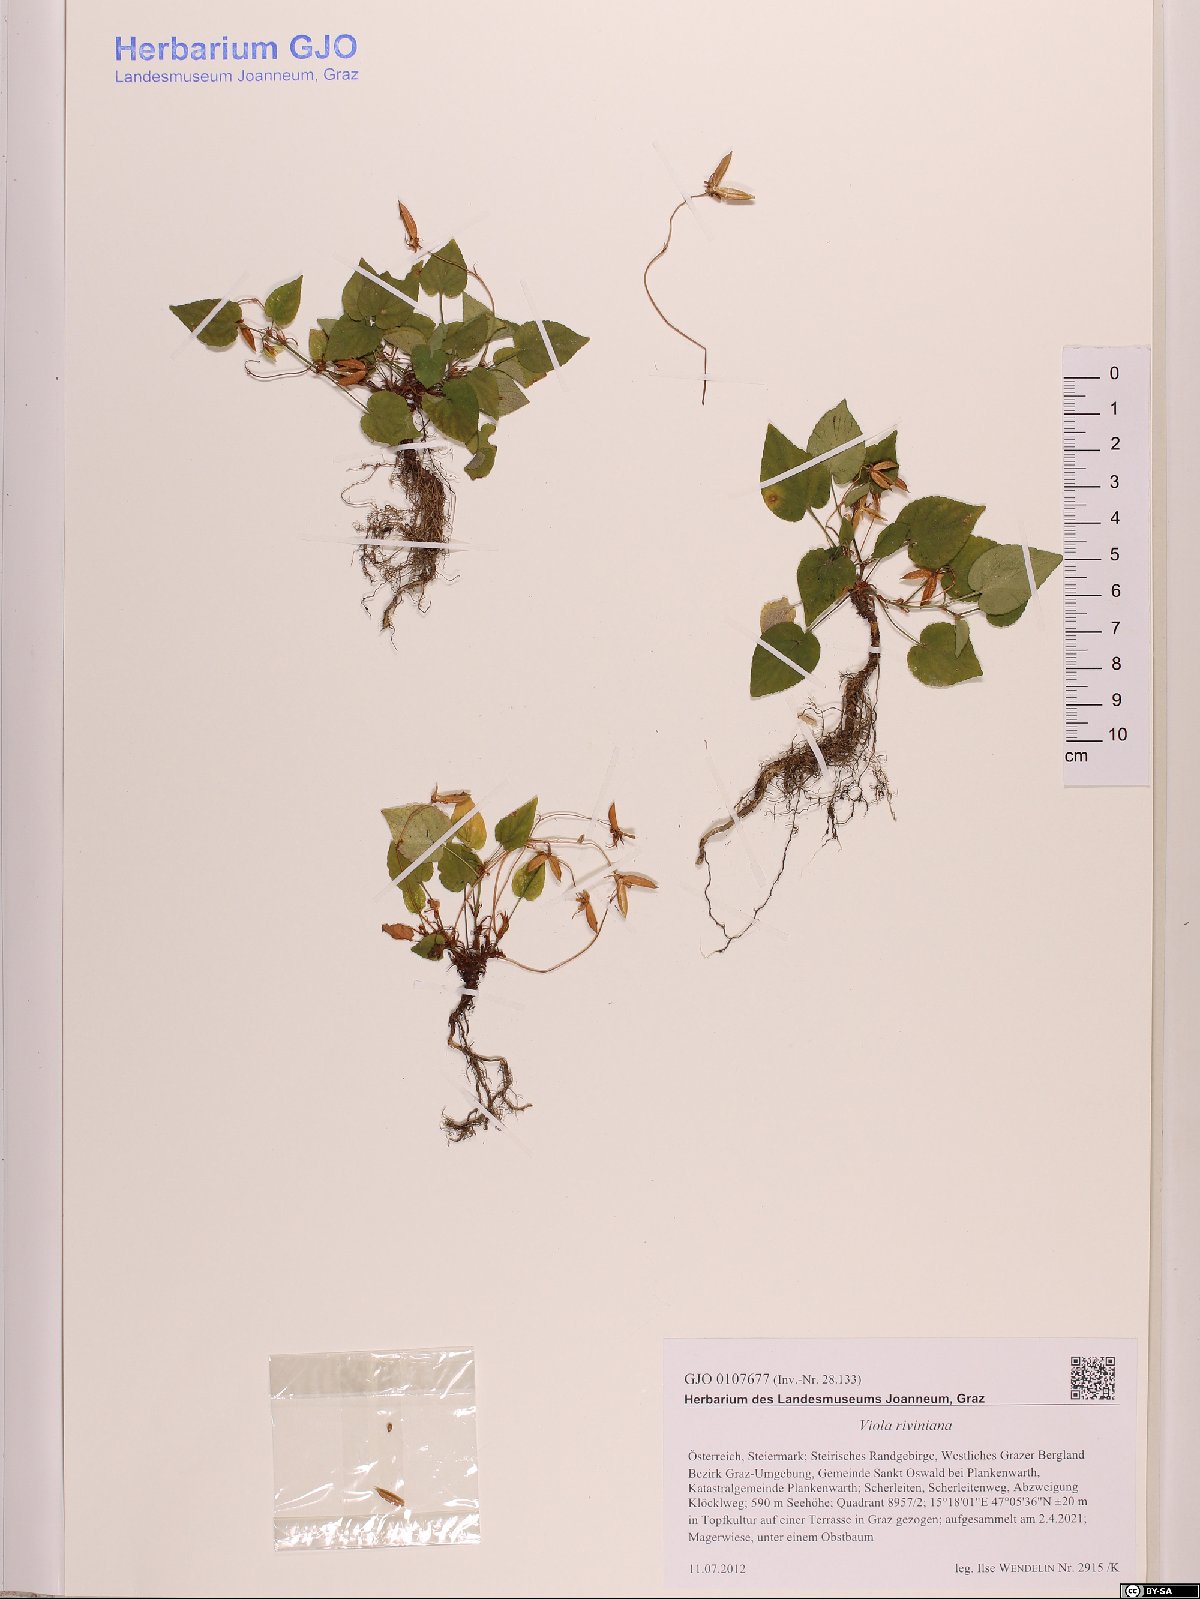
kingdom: Plantae
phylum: Tracheophyta
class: Magnoliopsida
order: Malpighiales
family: Violaceae
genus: Viola
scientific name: Viola riviniana
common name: Common dog-violet
